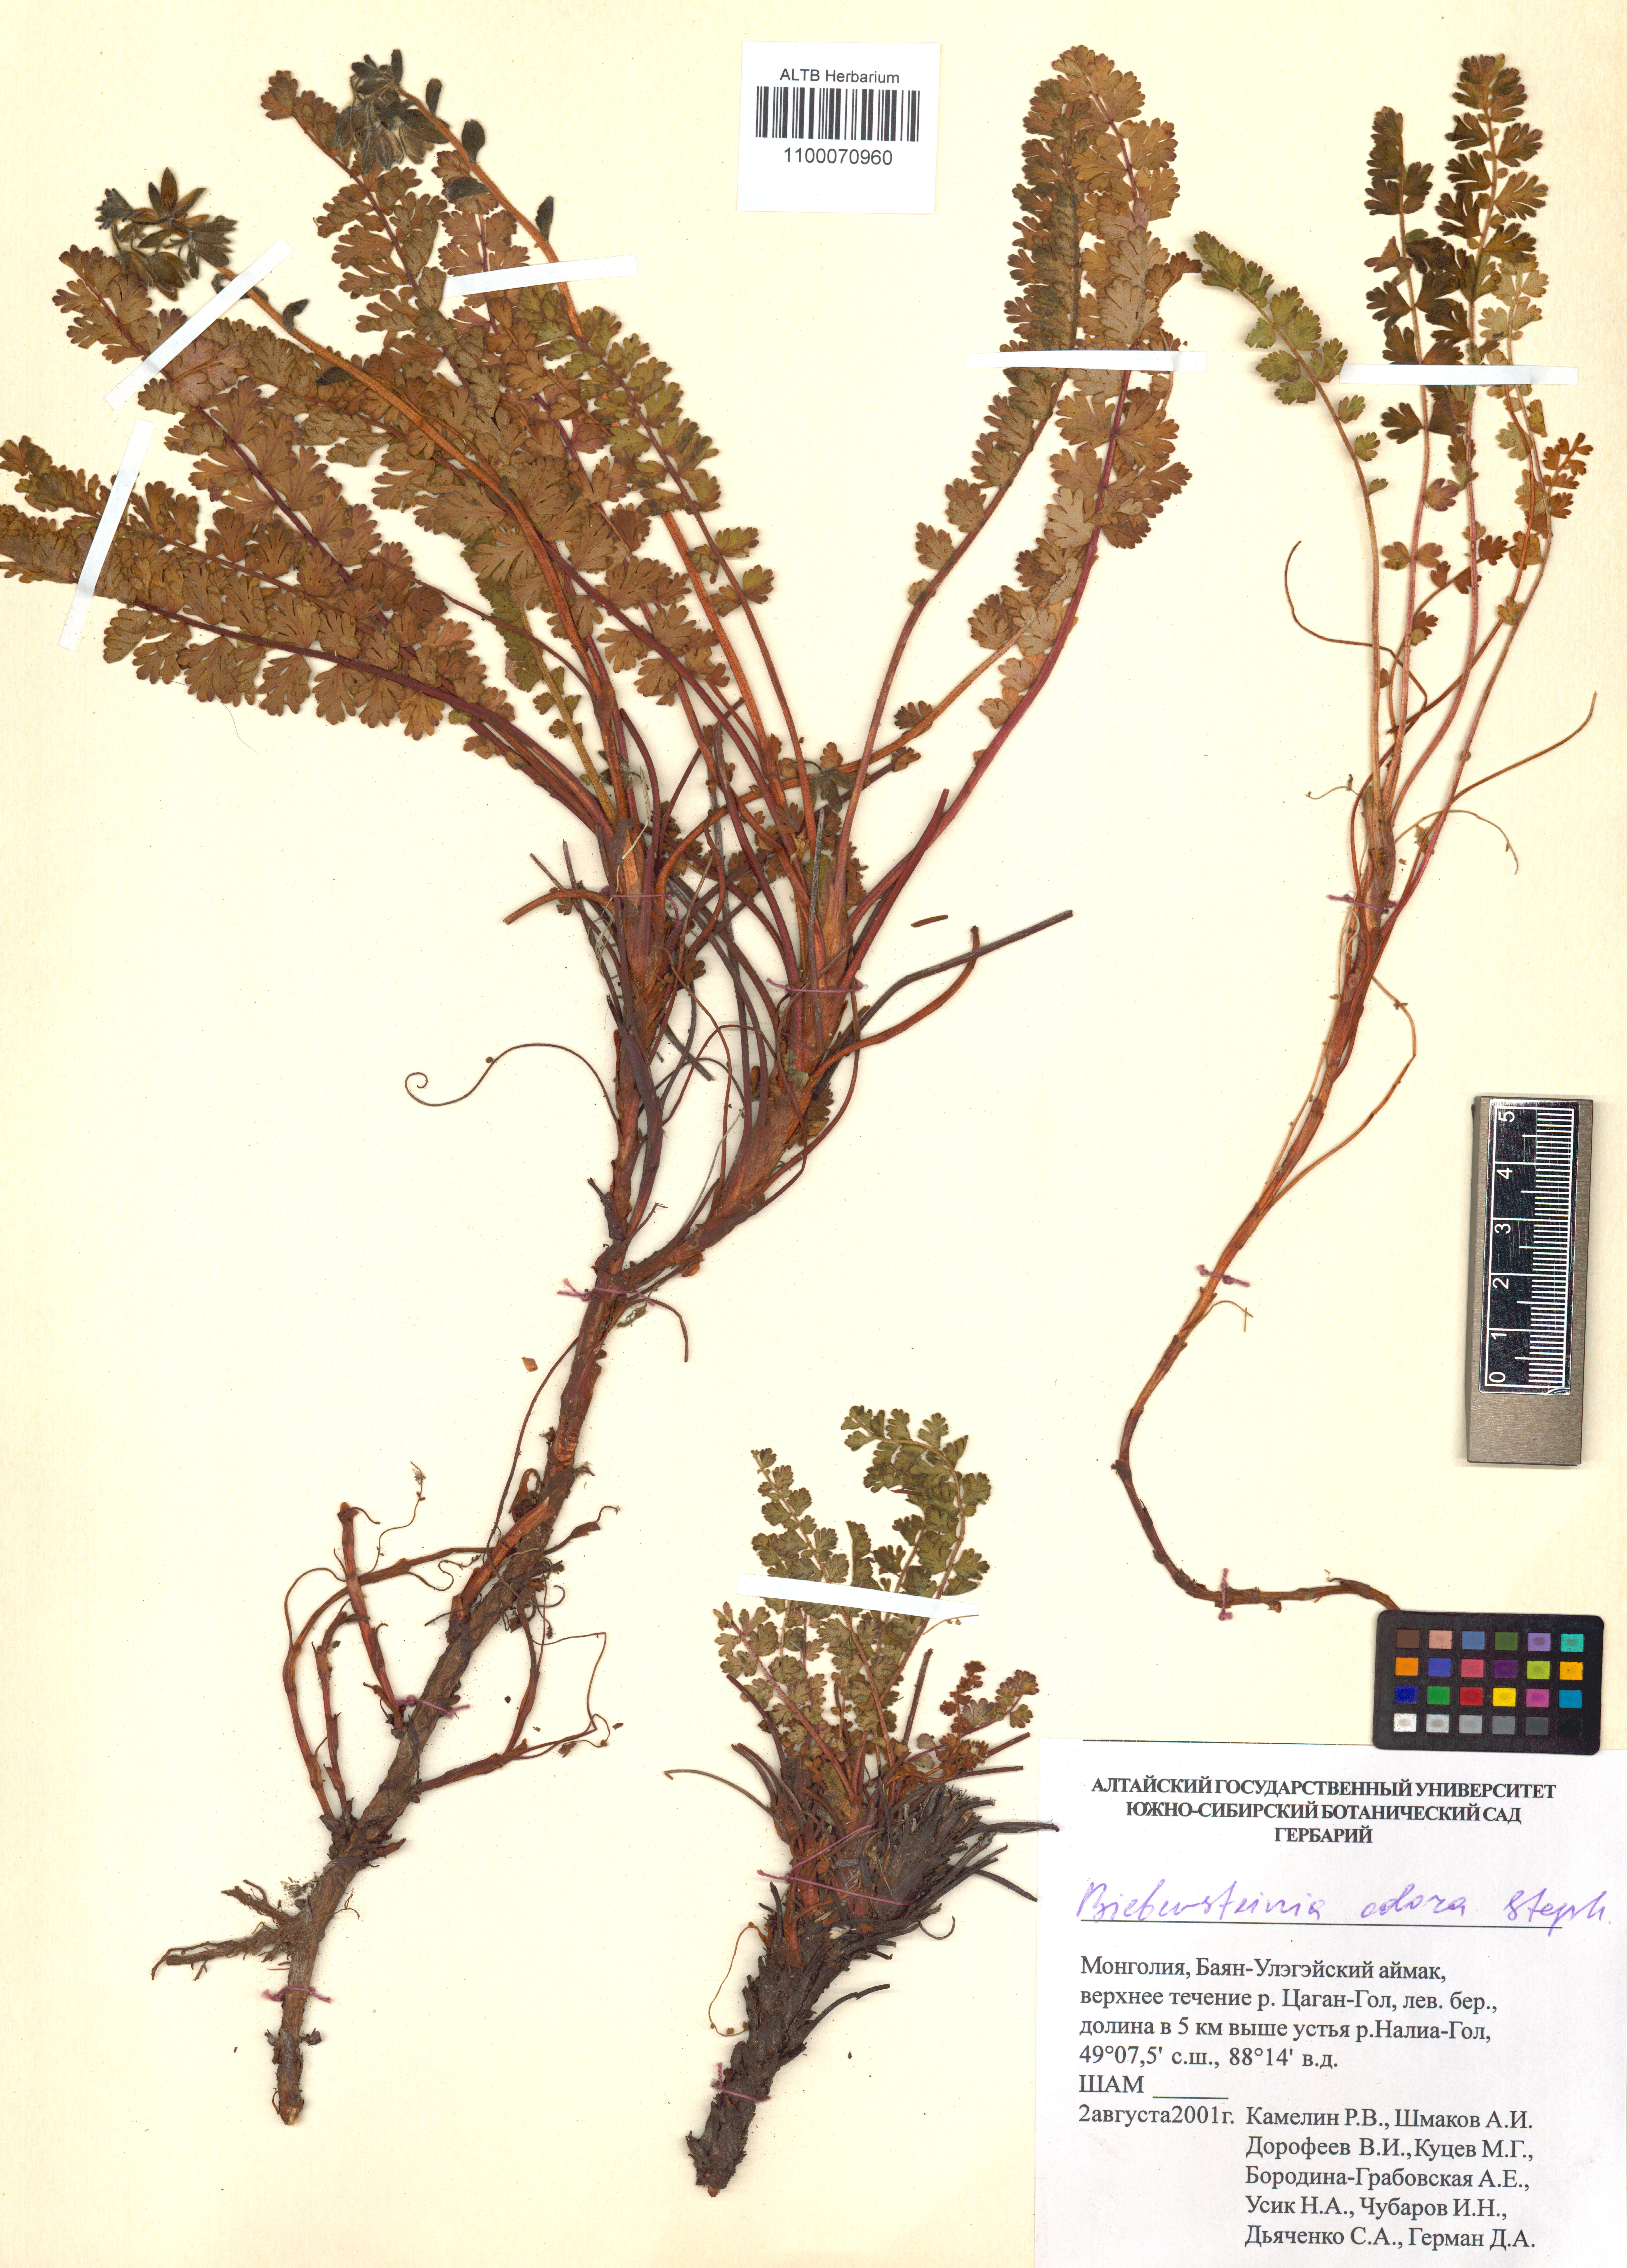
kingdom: Plantae
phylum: Tracheophyta
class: Magnoliopsida
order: Sapindales
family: Biebersteiniaceae
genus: Biebersteinia
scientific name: Biebersteinia odora
